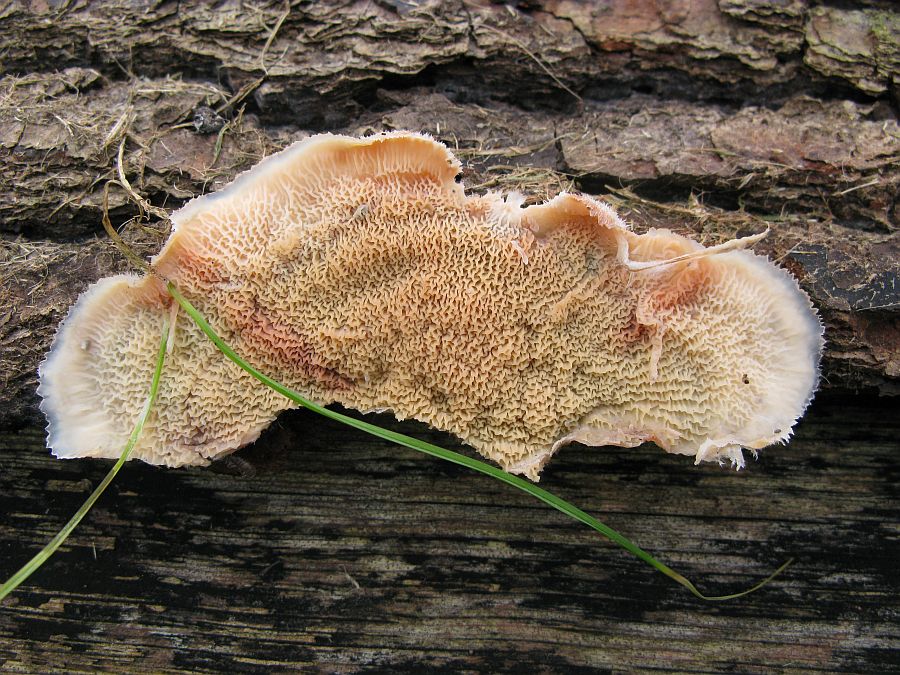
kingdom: Fungi
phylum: Basidiomycota
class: Agaricomycetes
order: Polyporales
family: Meruliaceae
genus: Phlebia
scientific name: Phlebia radiata
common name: stråle-åresvamp
